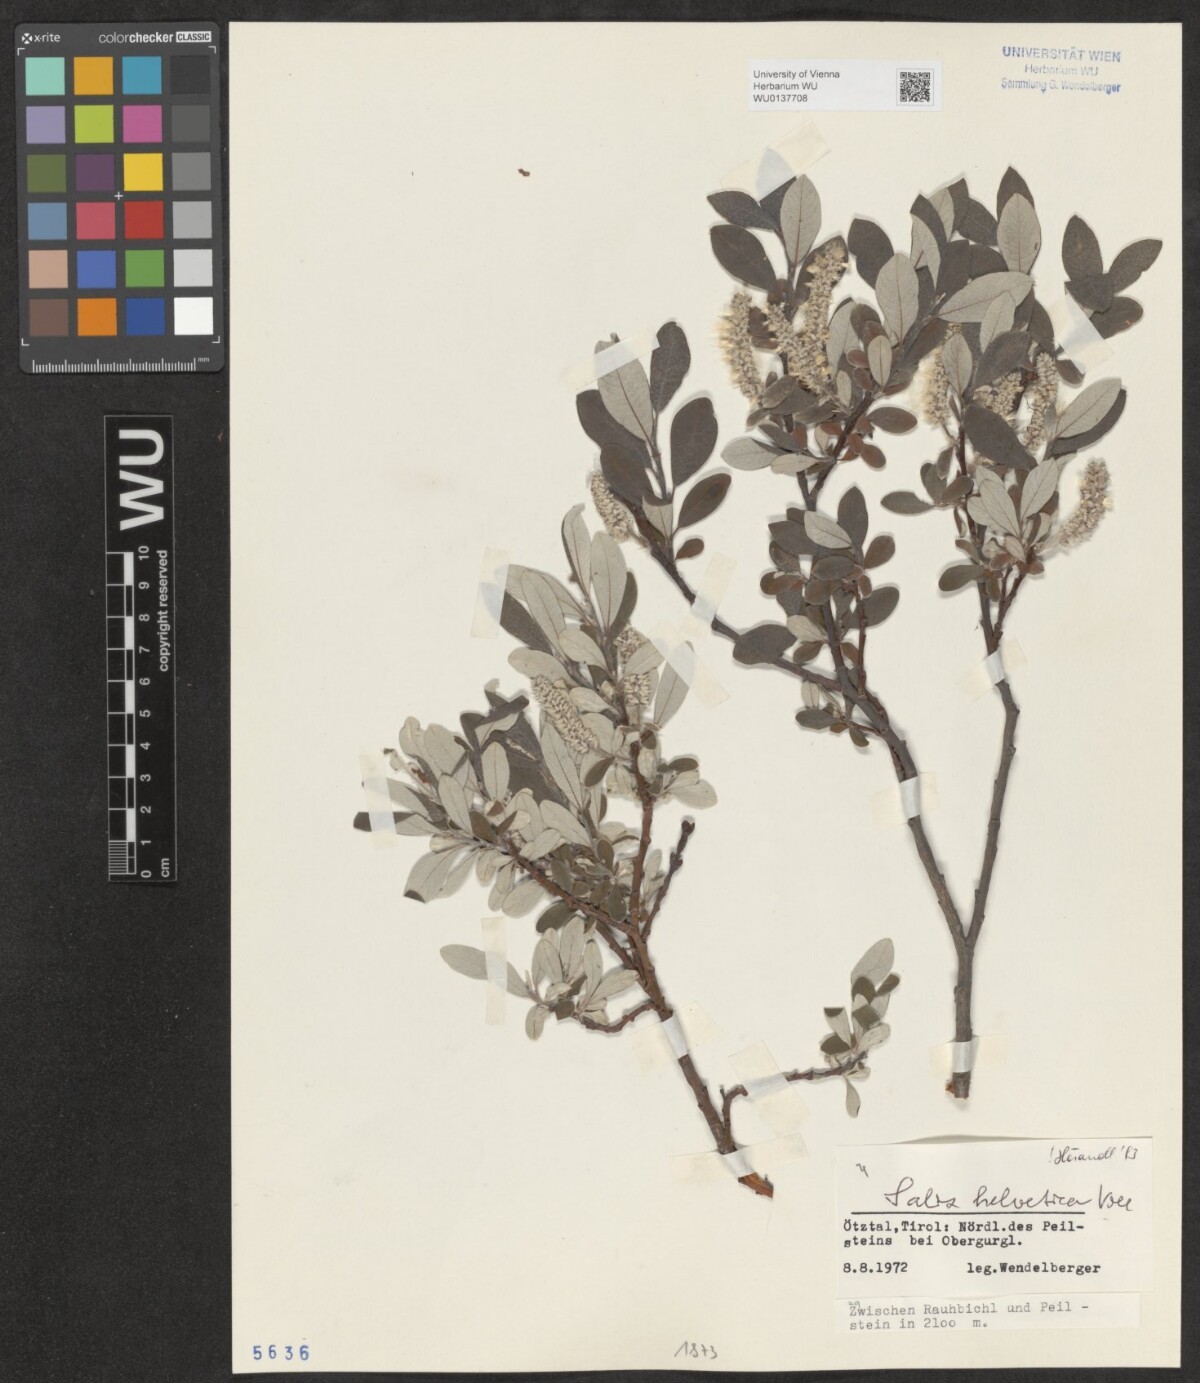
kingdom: Plantae
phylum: Tracheophyta
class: Magnoliopsida
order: Malpighiales
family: Salicaceae
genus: Salix
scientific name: Salix helvetica
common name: Swiss willow
